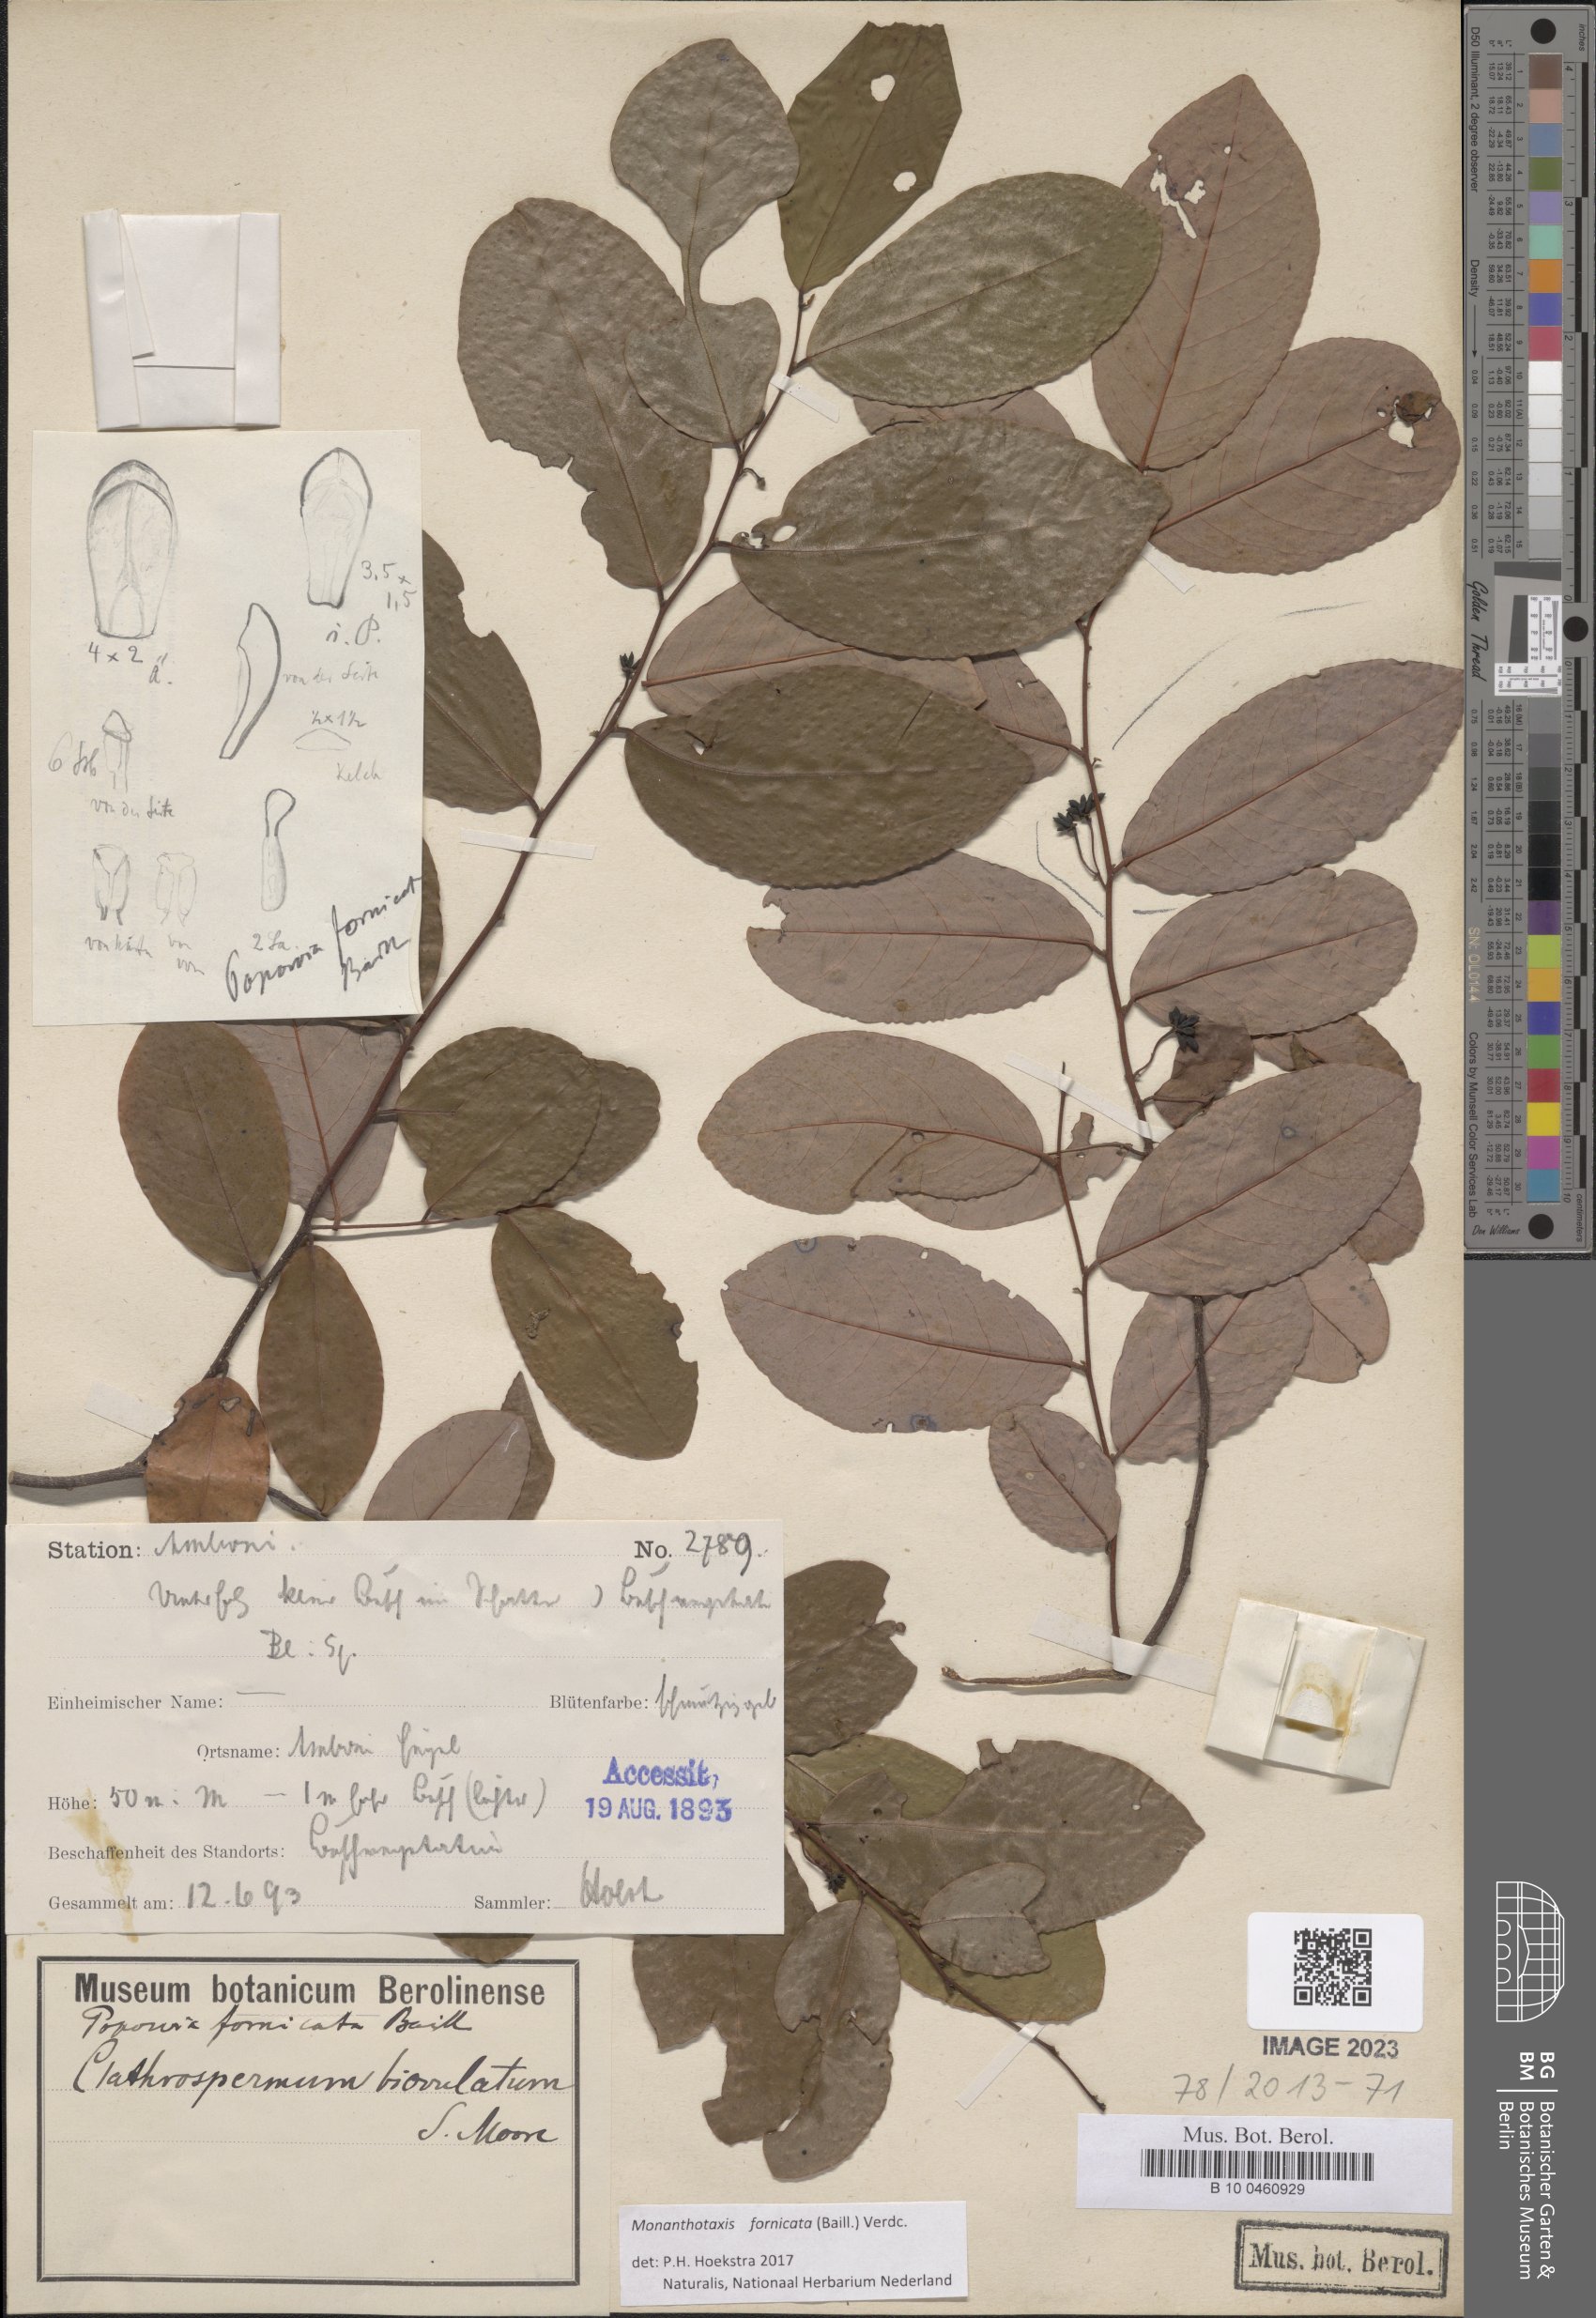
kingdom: Plantae
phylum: Tracheophyta
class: Magnoliopsida
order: Magnoliales
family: Annonaceae
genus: Monanthotaxis
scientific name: Monanthotaxis fornicata
